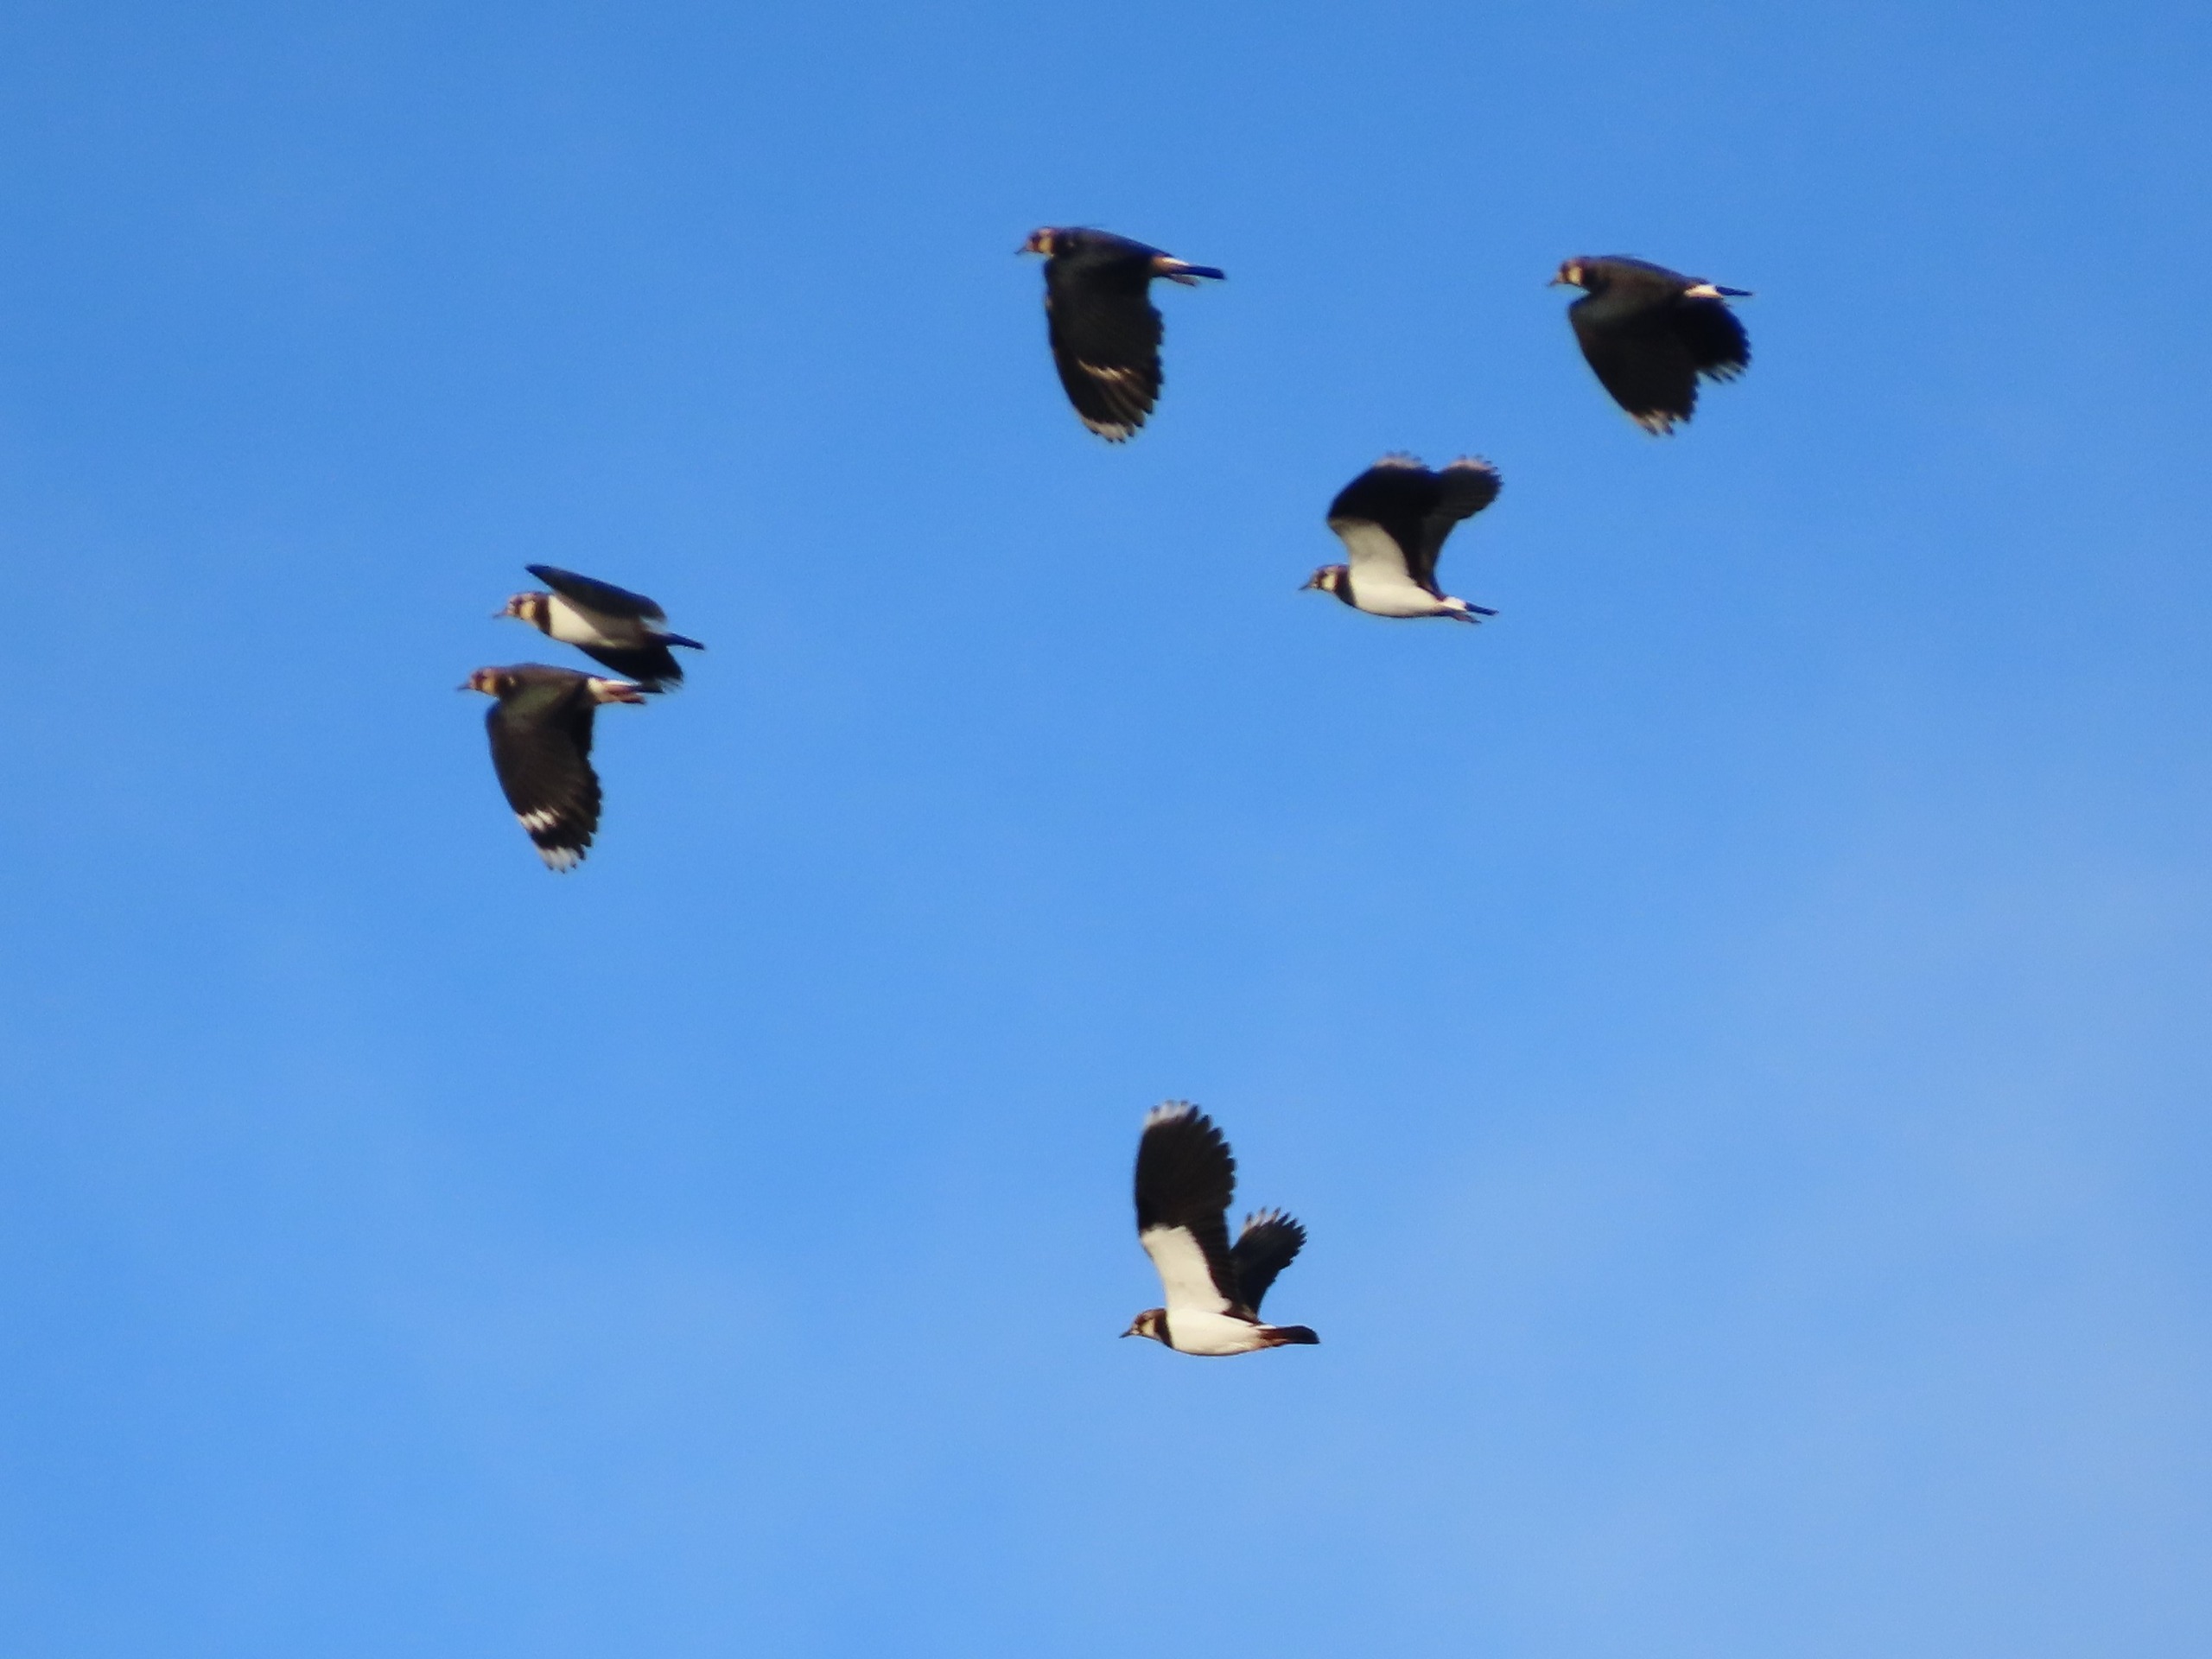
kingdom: Animalia
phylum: Chordata
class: Aves
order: Charadriiformes
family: Charadriidae
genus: Vanellus
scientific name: Vanellus vanellus
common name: Vibe
